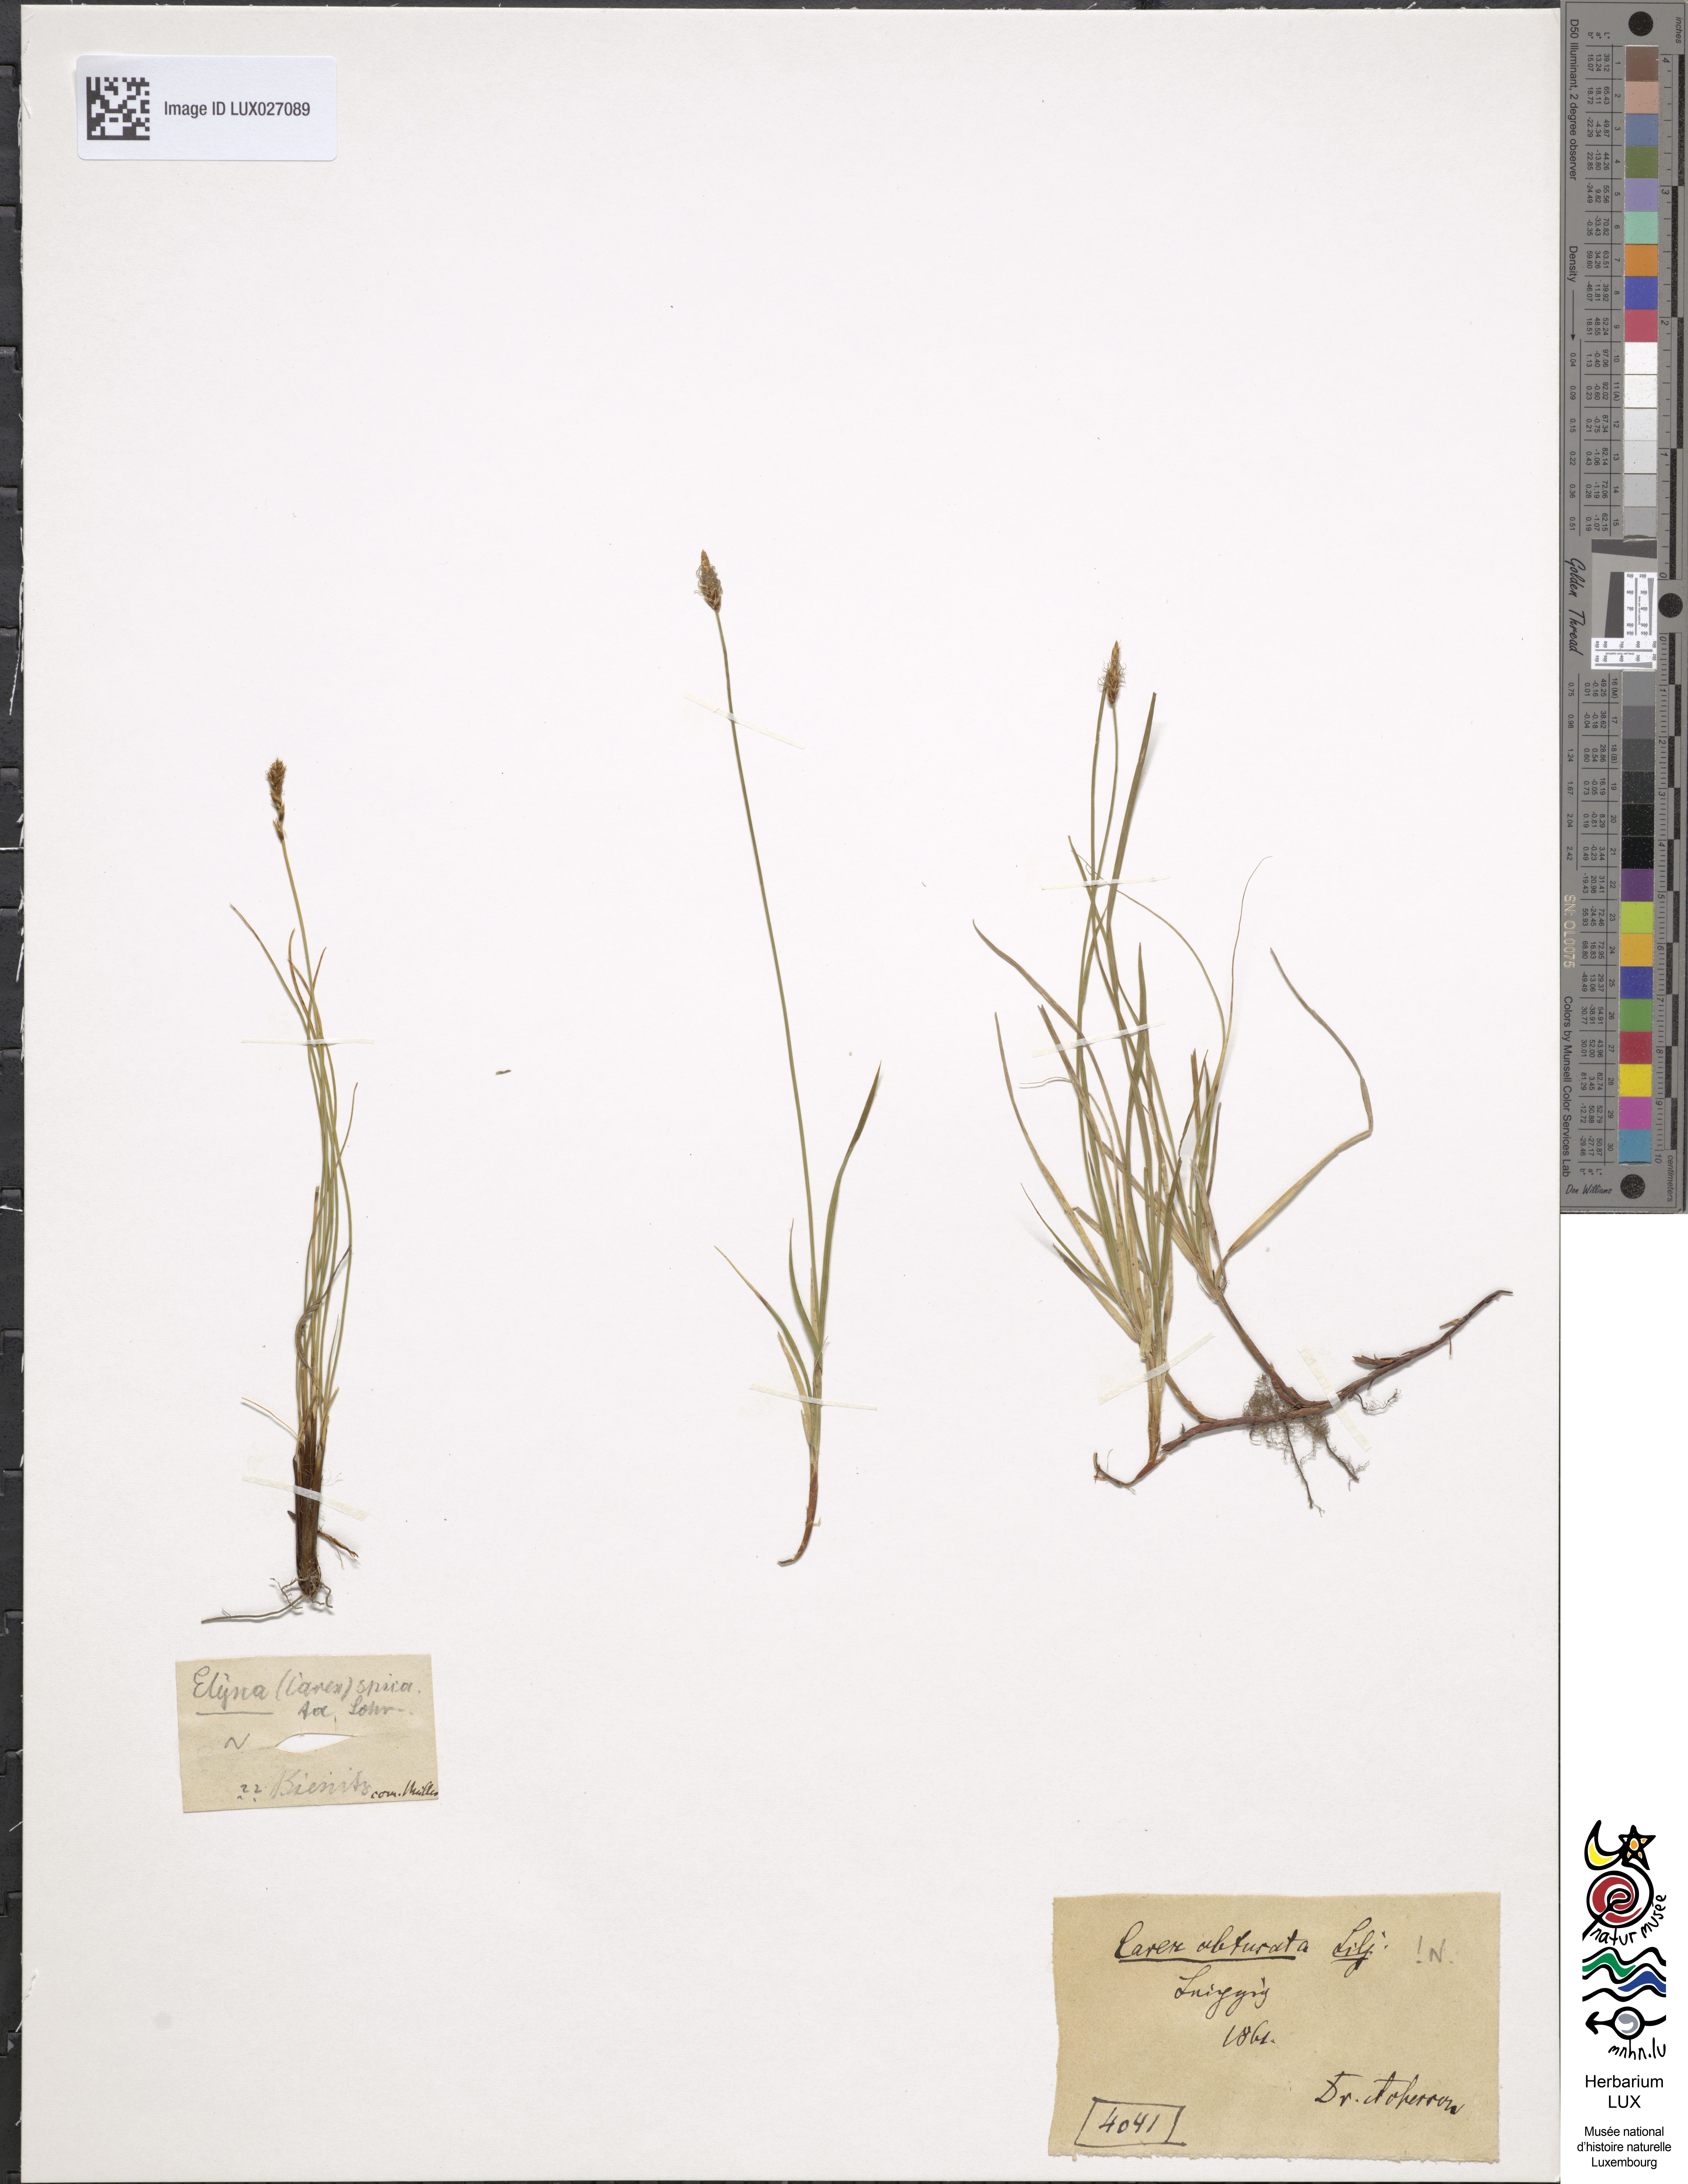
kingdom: Plantae
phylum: Tracheophyta
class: Liliopsida
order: Poales
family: Cyperaceae
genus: Carex
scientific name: Carex obtusata
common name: Blunt sedge
